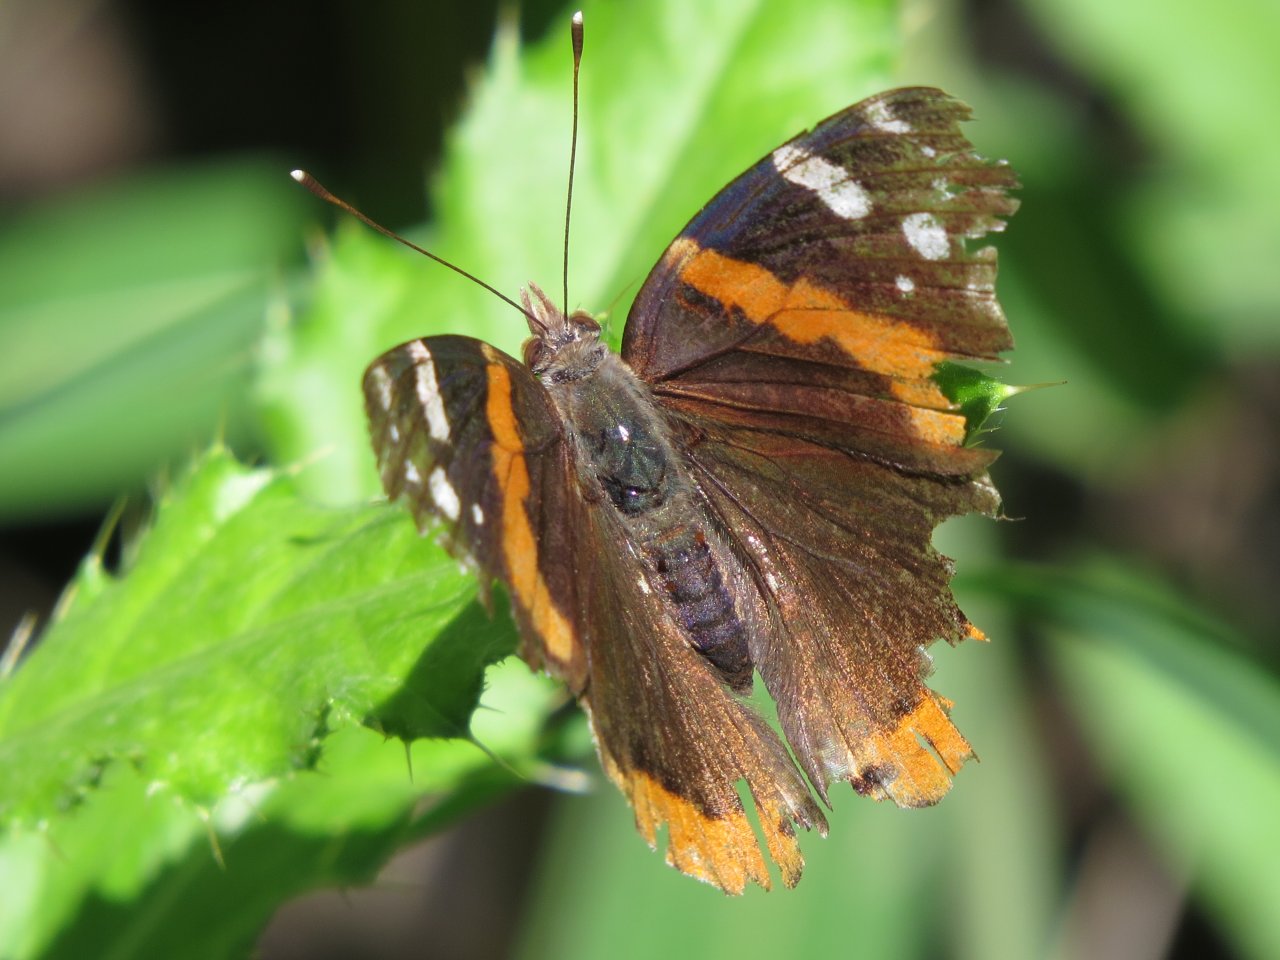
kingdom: Animalia
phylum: Arthropoda
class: Insecta
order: Lepidoptera
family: Nymphalidae
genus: Vanessa
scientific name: Vanessa atalanta
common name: Red Admiral
